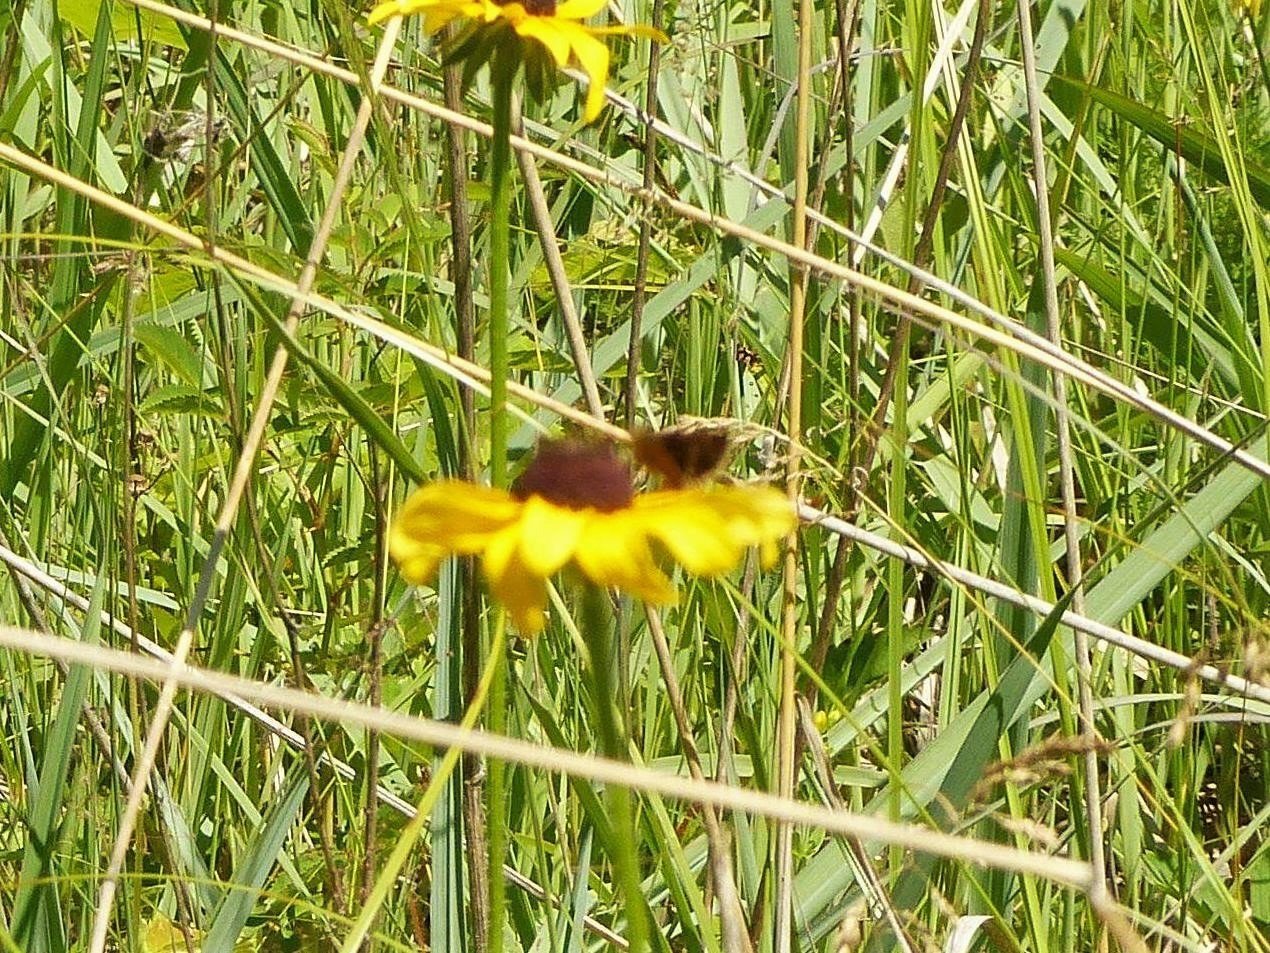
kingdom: Animalia
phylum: Arthropoda
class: Insecta
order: Lepidoptera
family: Hesperiidae
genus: Euphyes
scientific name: Euphyes conspicua
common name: Black Dash
